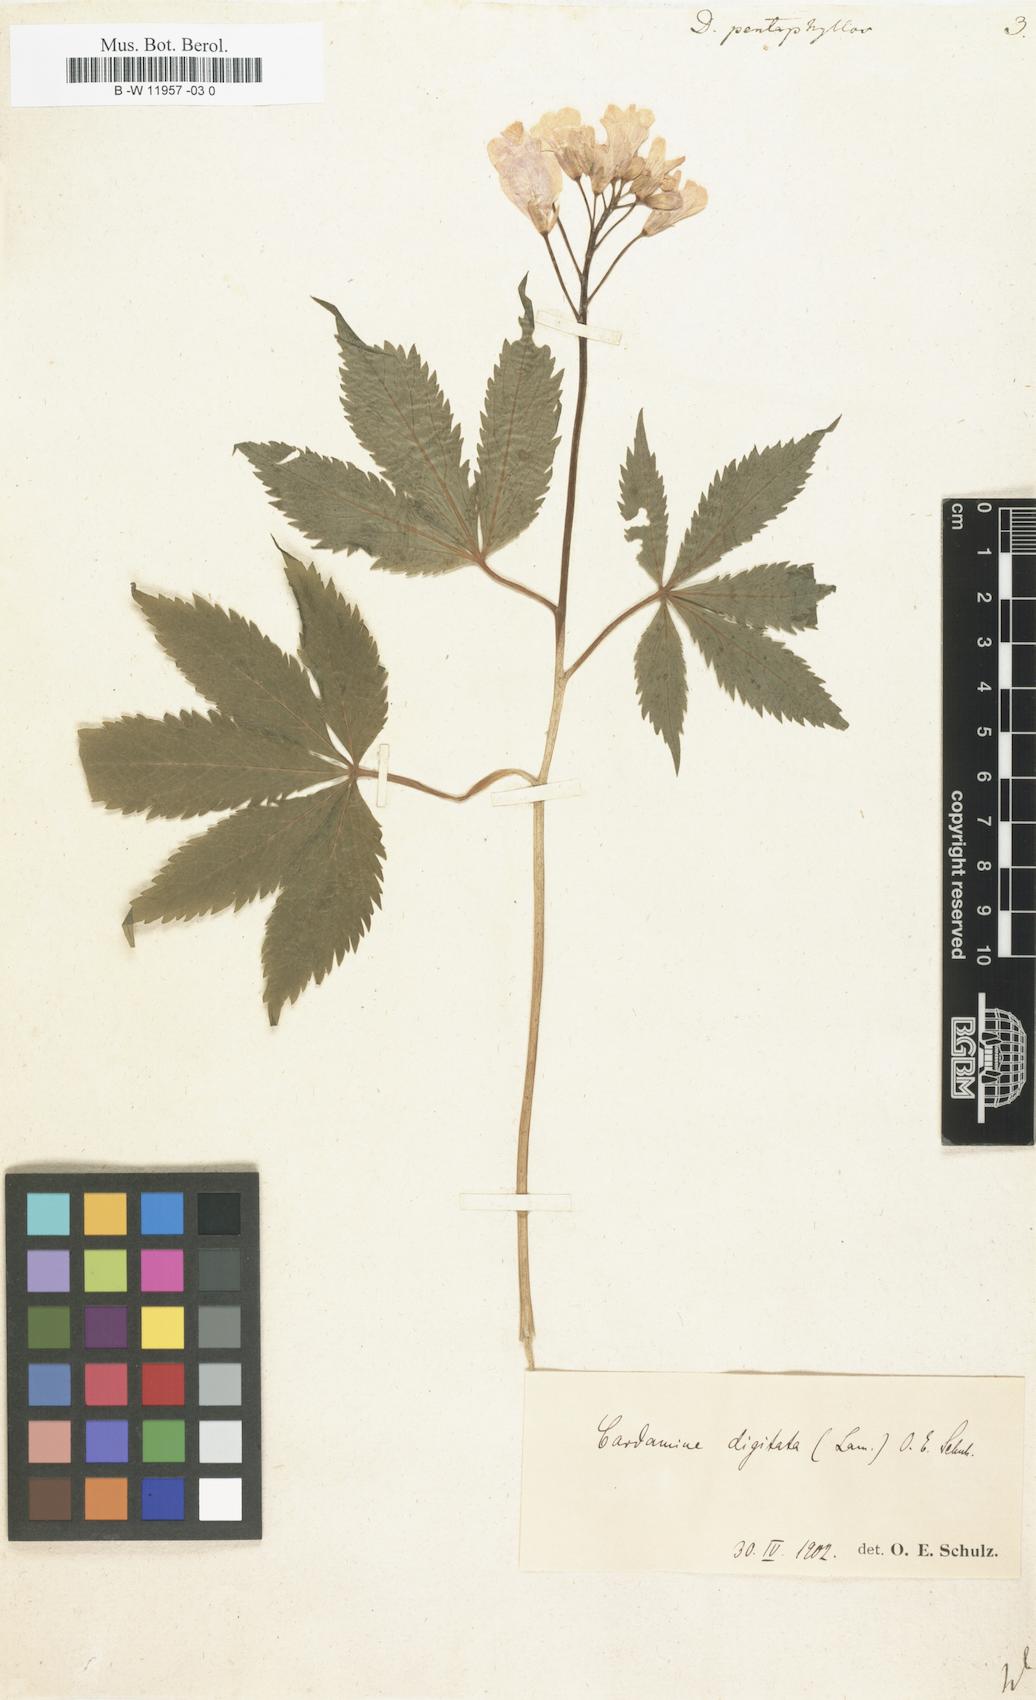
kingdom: Plantae
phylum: Tracheophyta
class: Magnoliopsida
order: Brassicales
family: Brassicaceae
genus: Cardamine
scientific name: Cardamine pentaphyllos
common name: Five-leaflet bitter-cress
